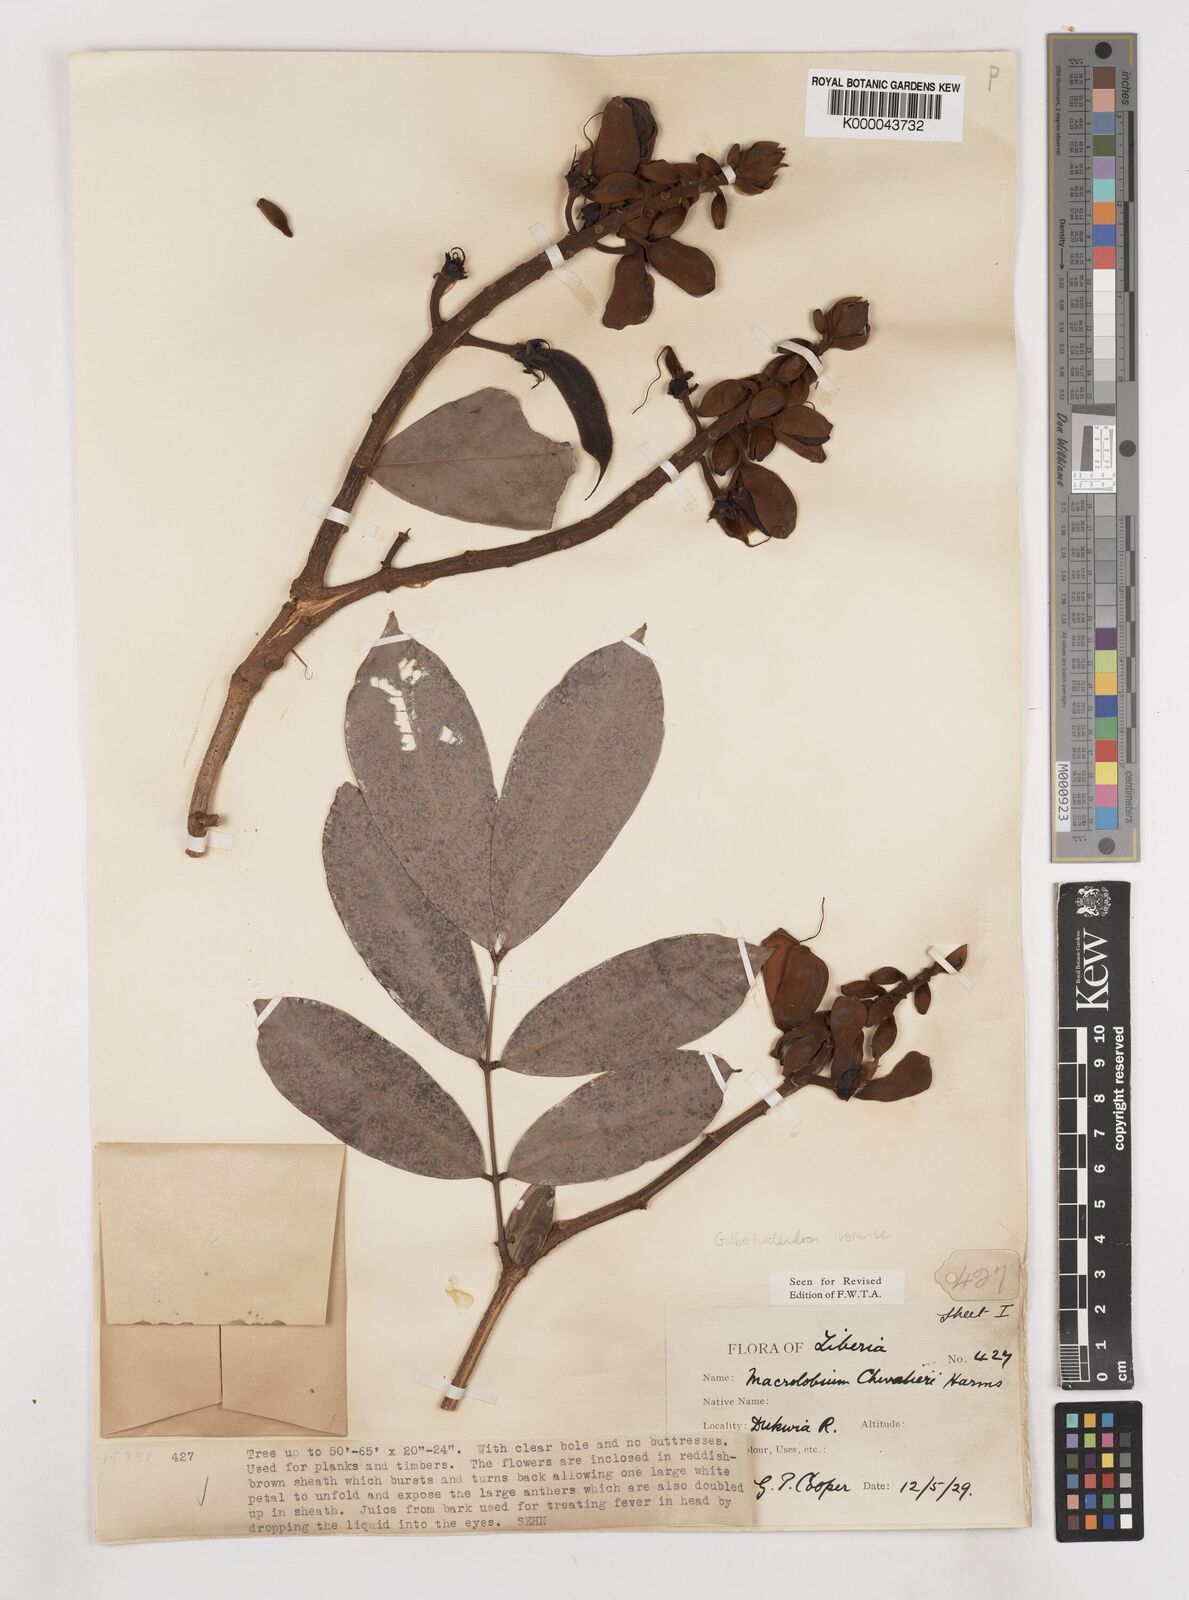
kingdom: Plantae
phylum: Tracheophyta
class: Magnoliopsida
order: Fabales
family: Fabaceae
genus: Gilbertiodendron
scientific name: Gilbertiodendron
